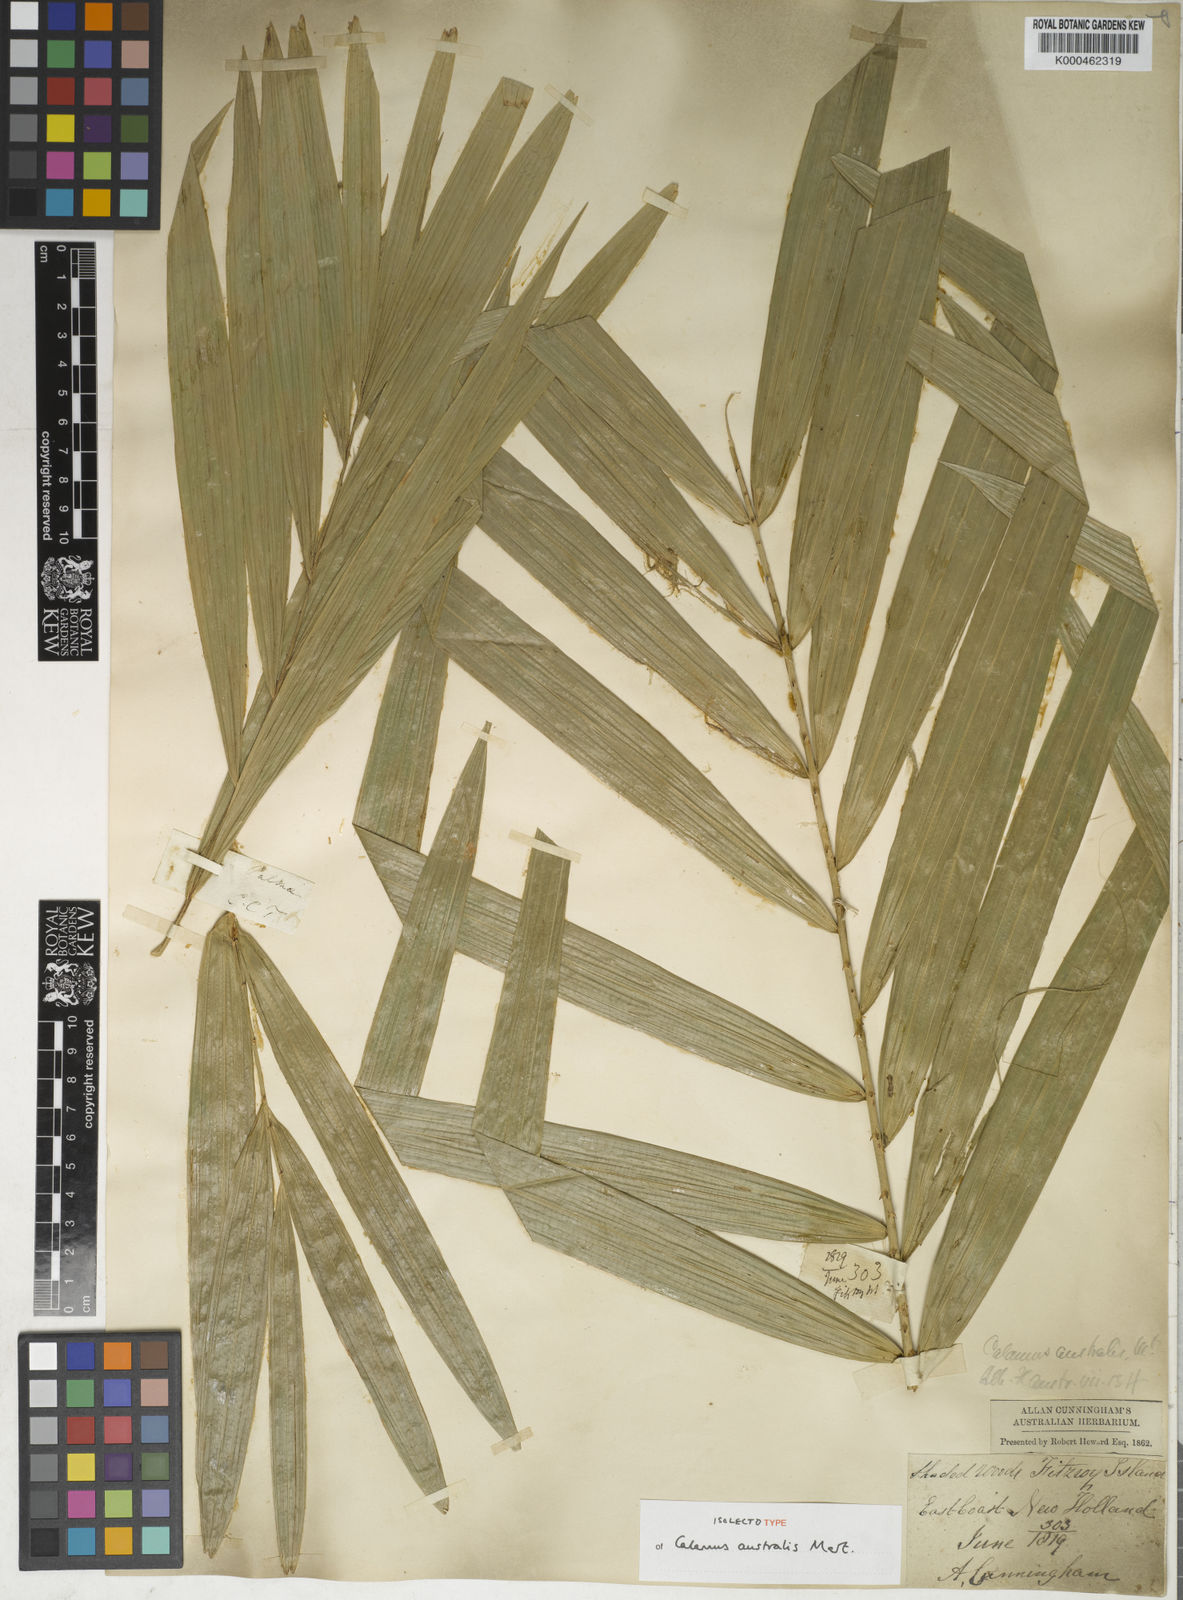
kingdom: Plantae
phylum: Tracheophyta
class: Liliopsida
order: Arecales
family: Arecaceae
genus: Calamus
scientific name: Calamus australis
